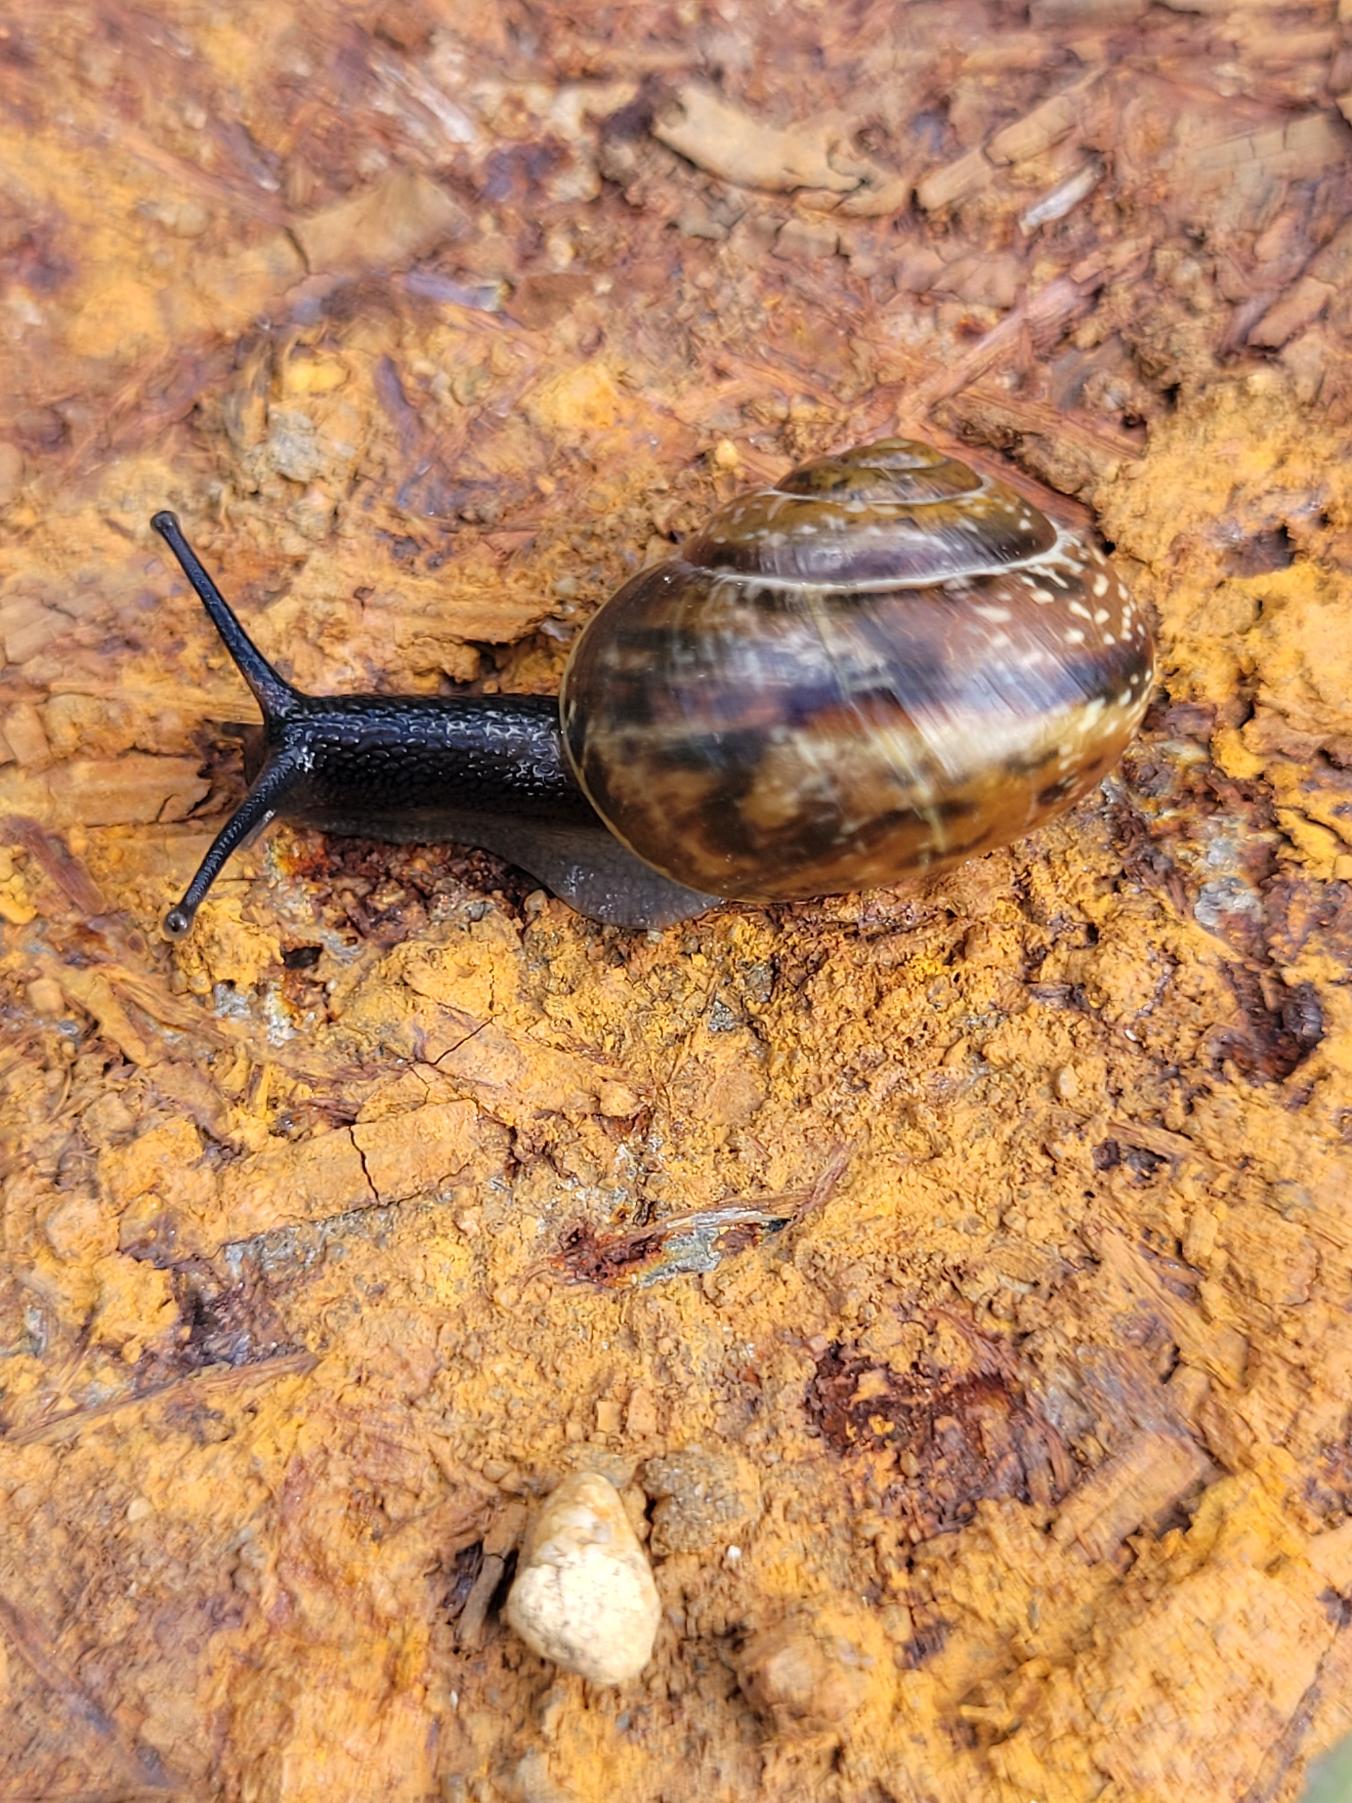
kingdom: Animalia
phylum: Mollusca
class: Gastropoda
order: Stylommatophora
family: Helicidae
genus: Arianta
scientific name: Arianta arbustorum
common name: Kratsnegl
